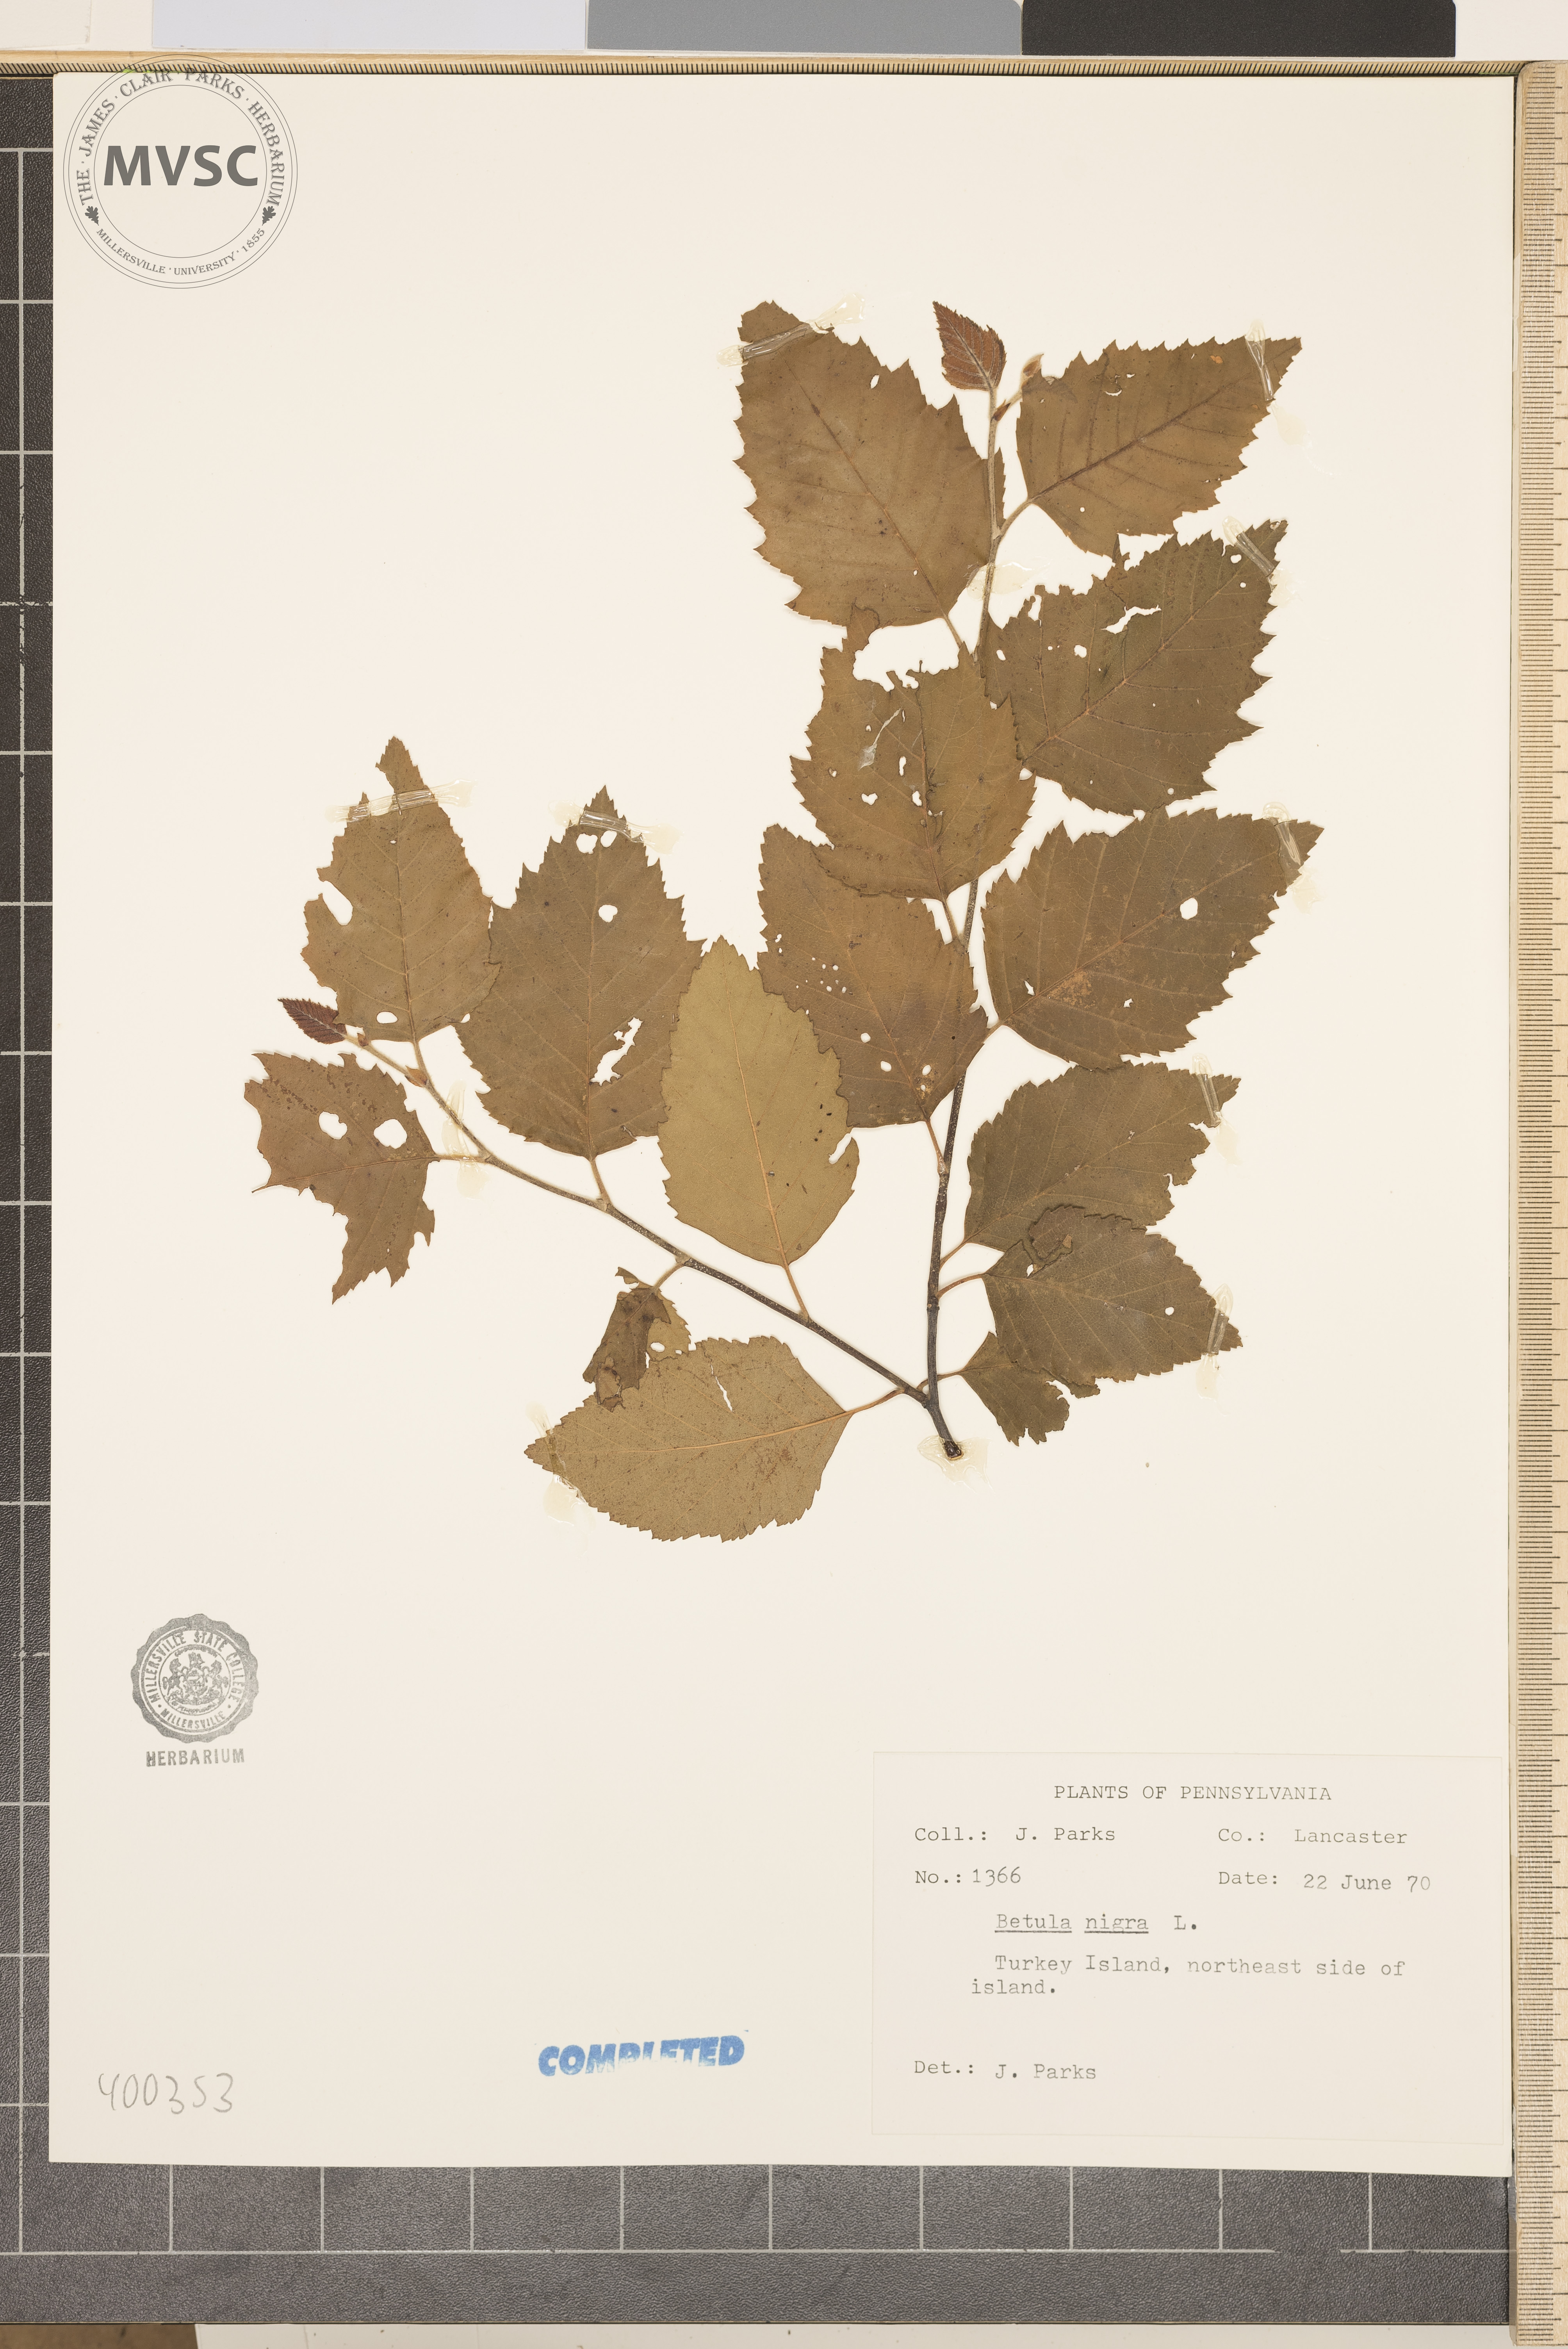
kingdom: Plantae
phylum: Tracheophyta
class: Magnoliopsida
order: Fagales
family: Betulaceae
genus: Betula
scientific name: Betula nigra
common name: river birch
